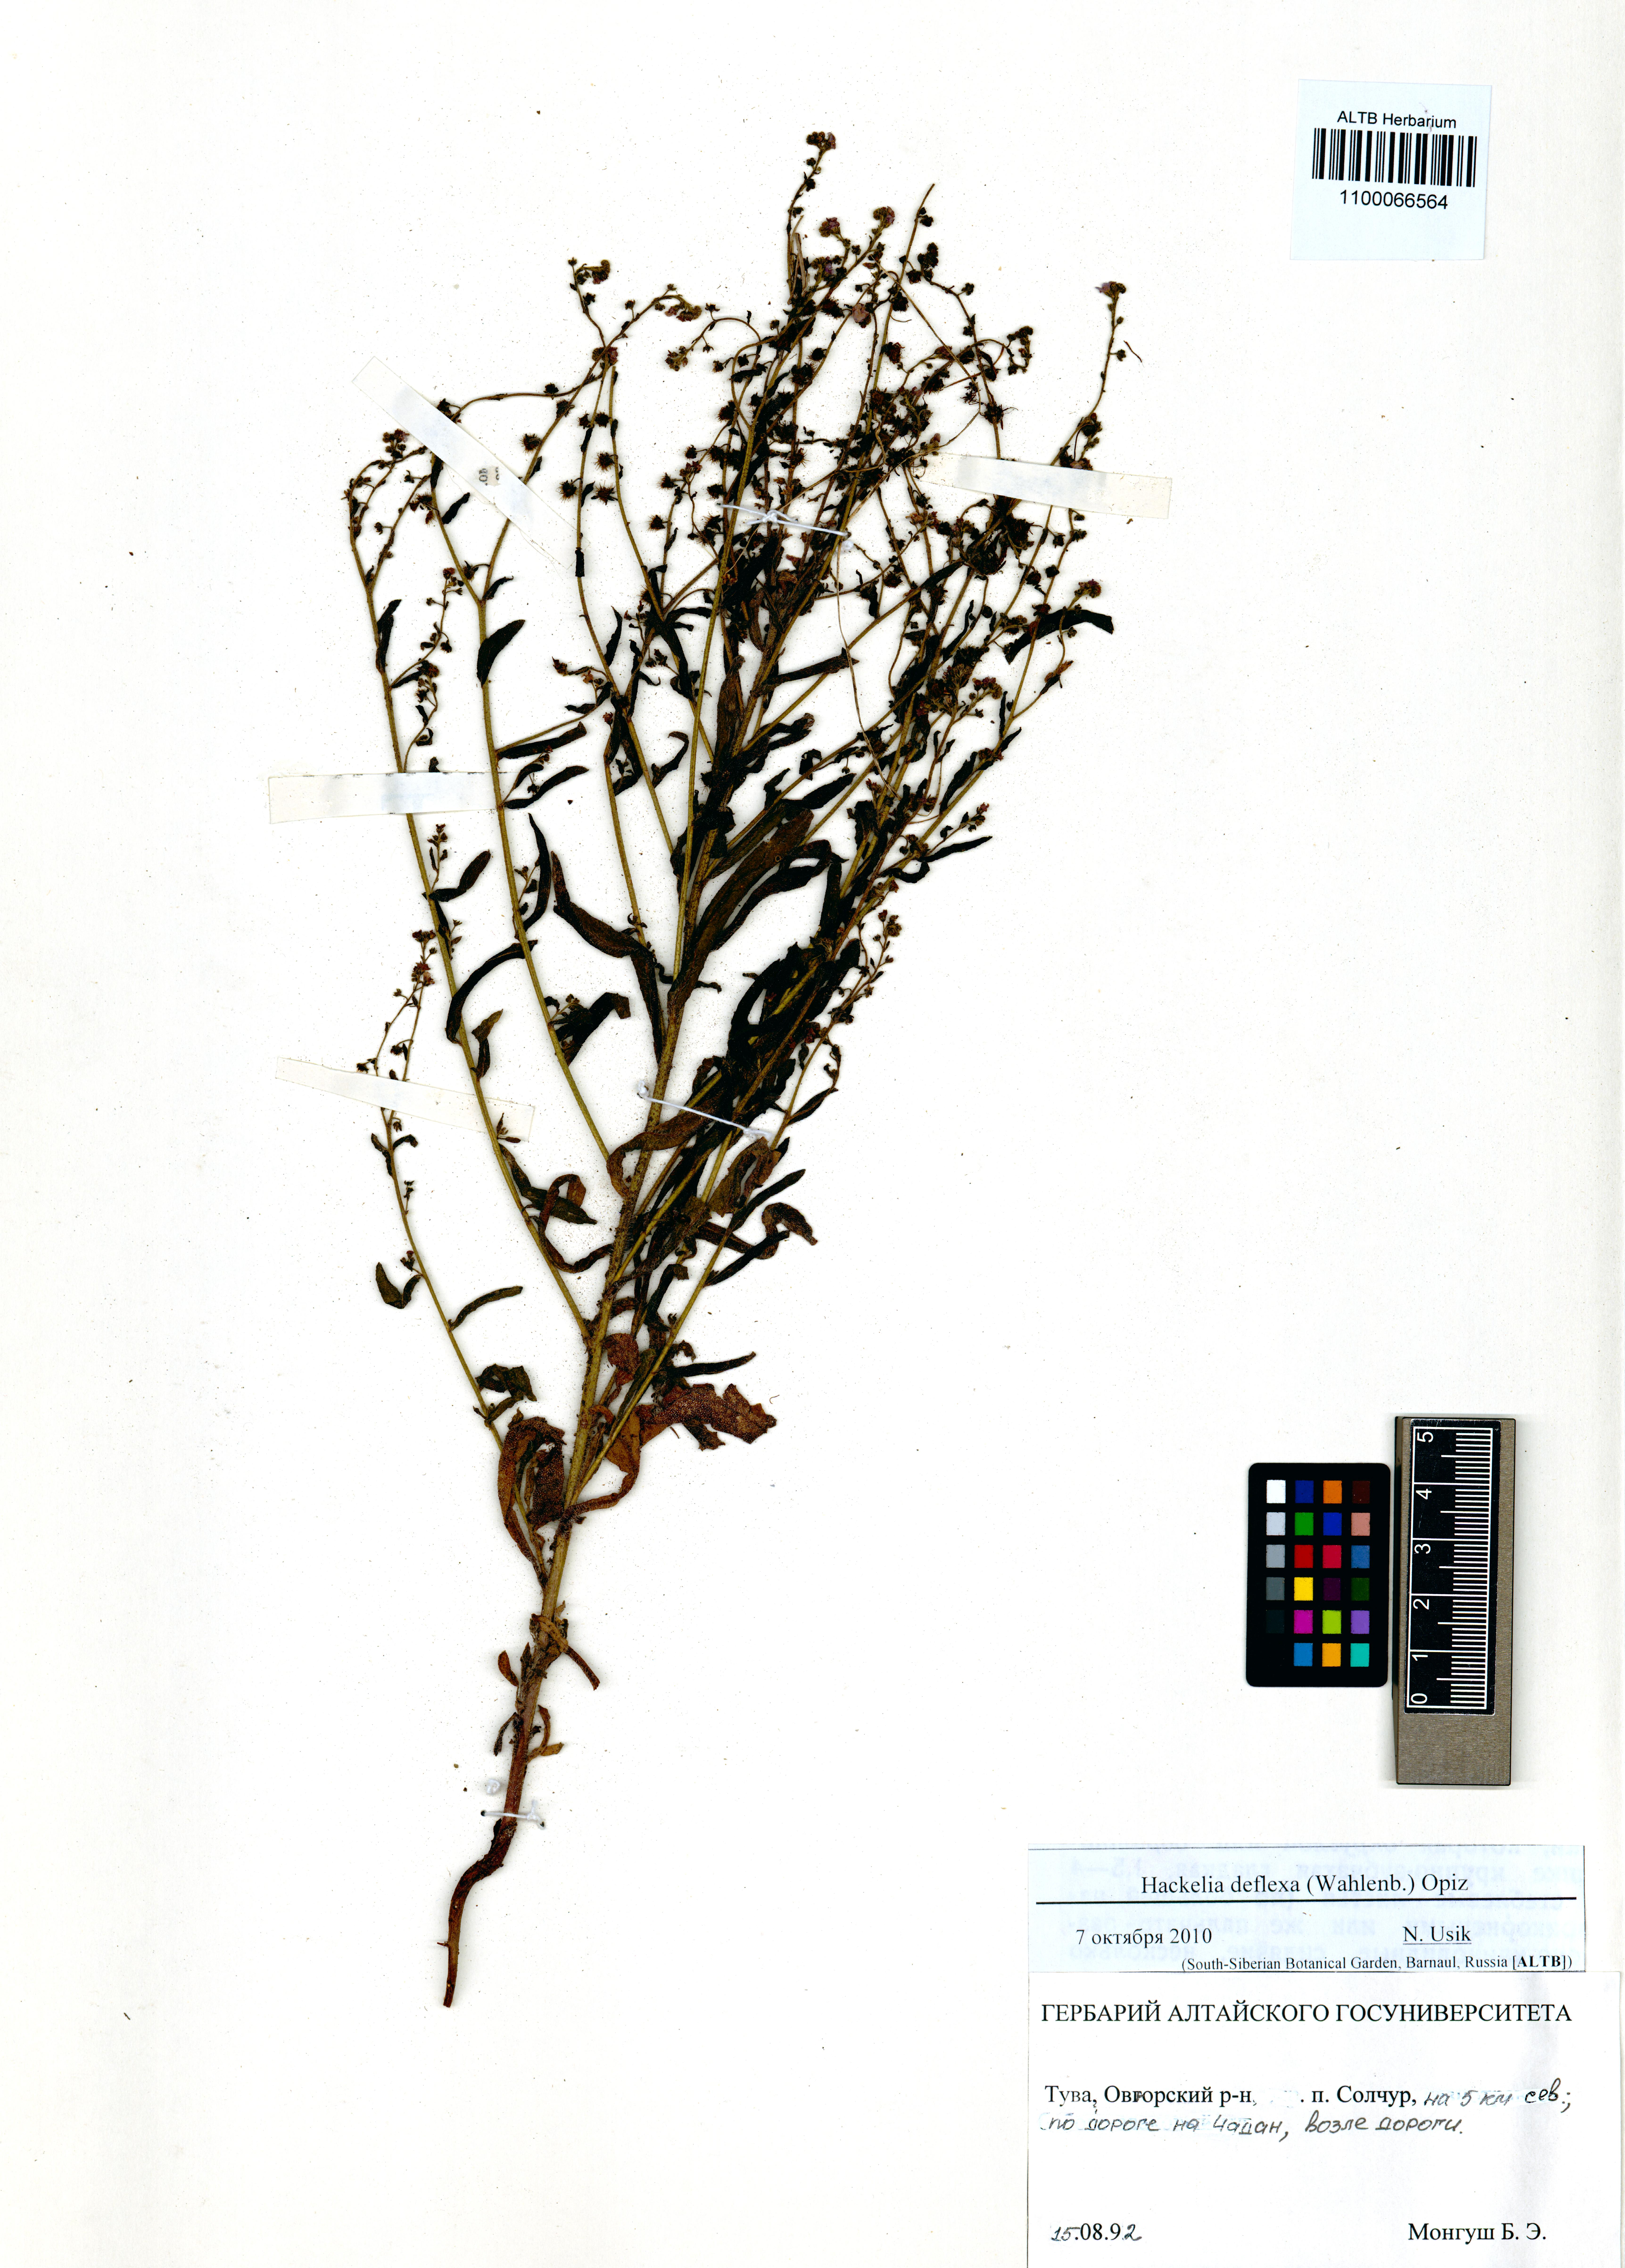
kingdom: Plantae
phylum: Tracheophyta
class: Magnoliopsida
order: Boraginales
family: Boraginaceae
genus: Hackelia
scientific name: Hackelia deflexa
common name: Nodding stickseed
